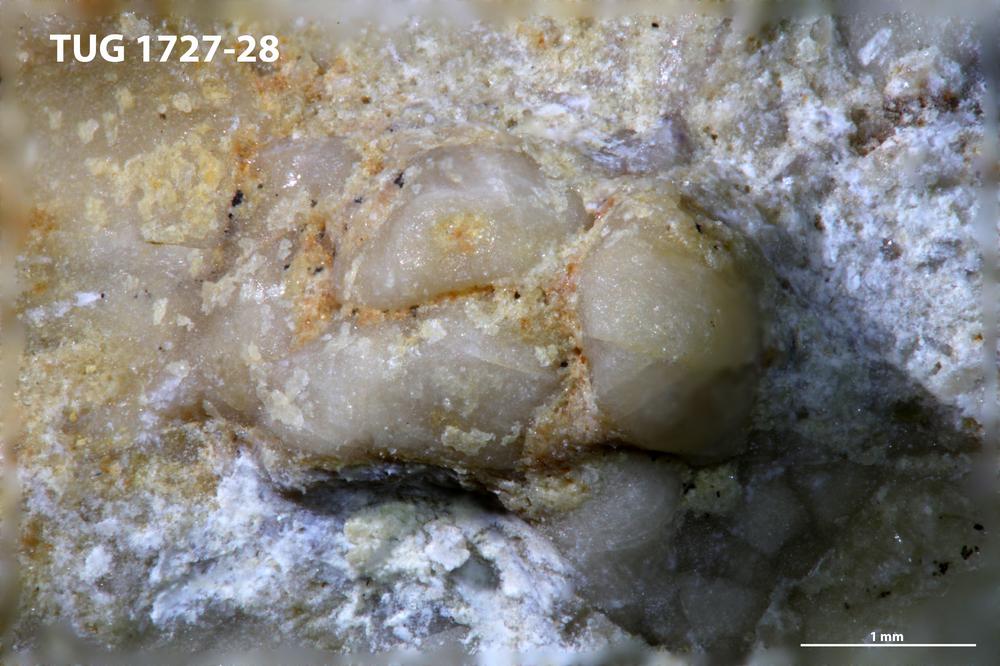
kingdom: Animalia
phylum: Echinodermata
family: Sphaeronitidae
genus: Eucystis
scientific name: Eucystis Glyptosphaerites leuchtenbergi
